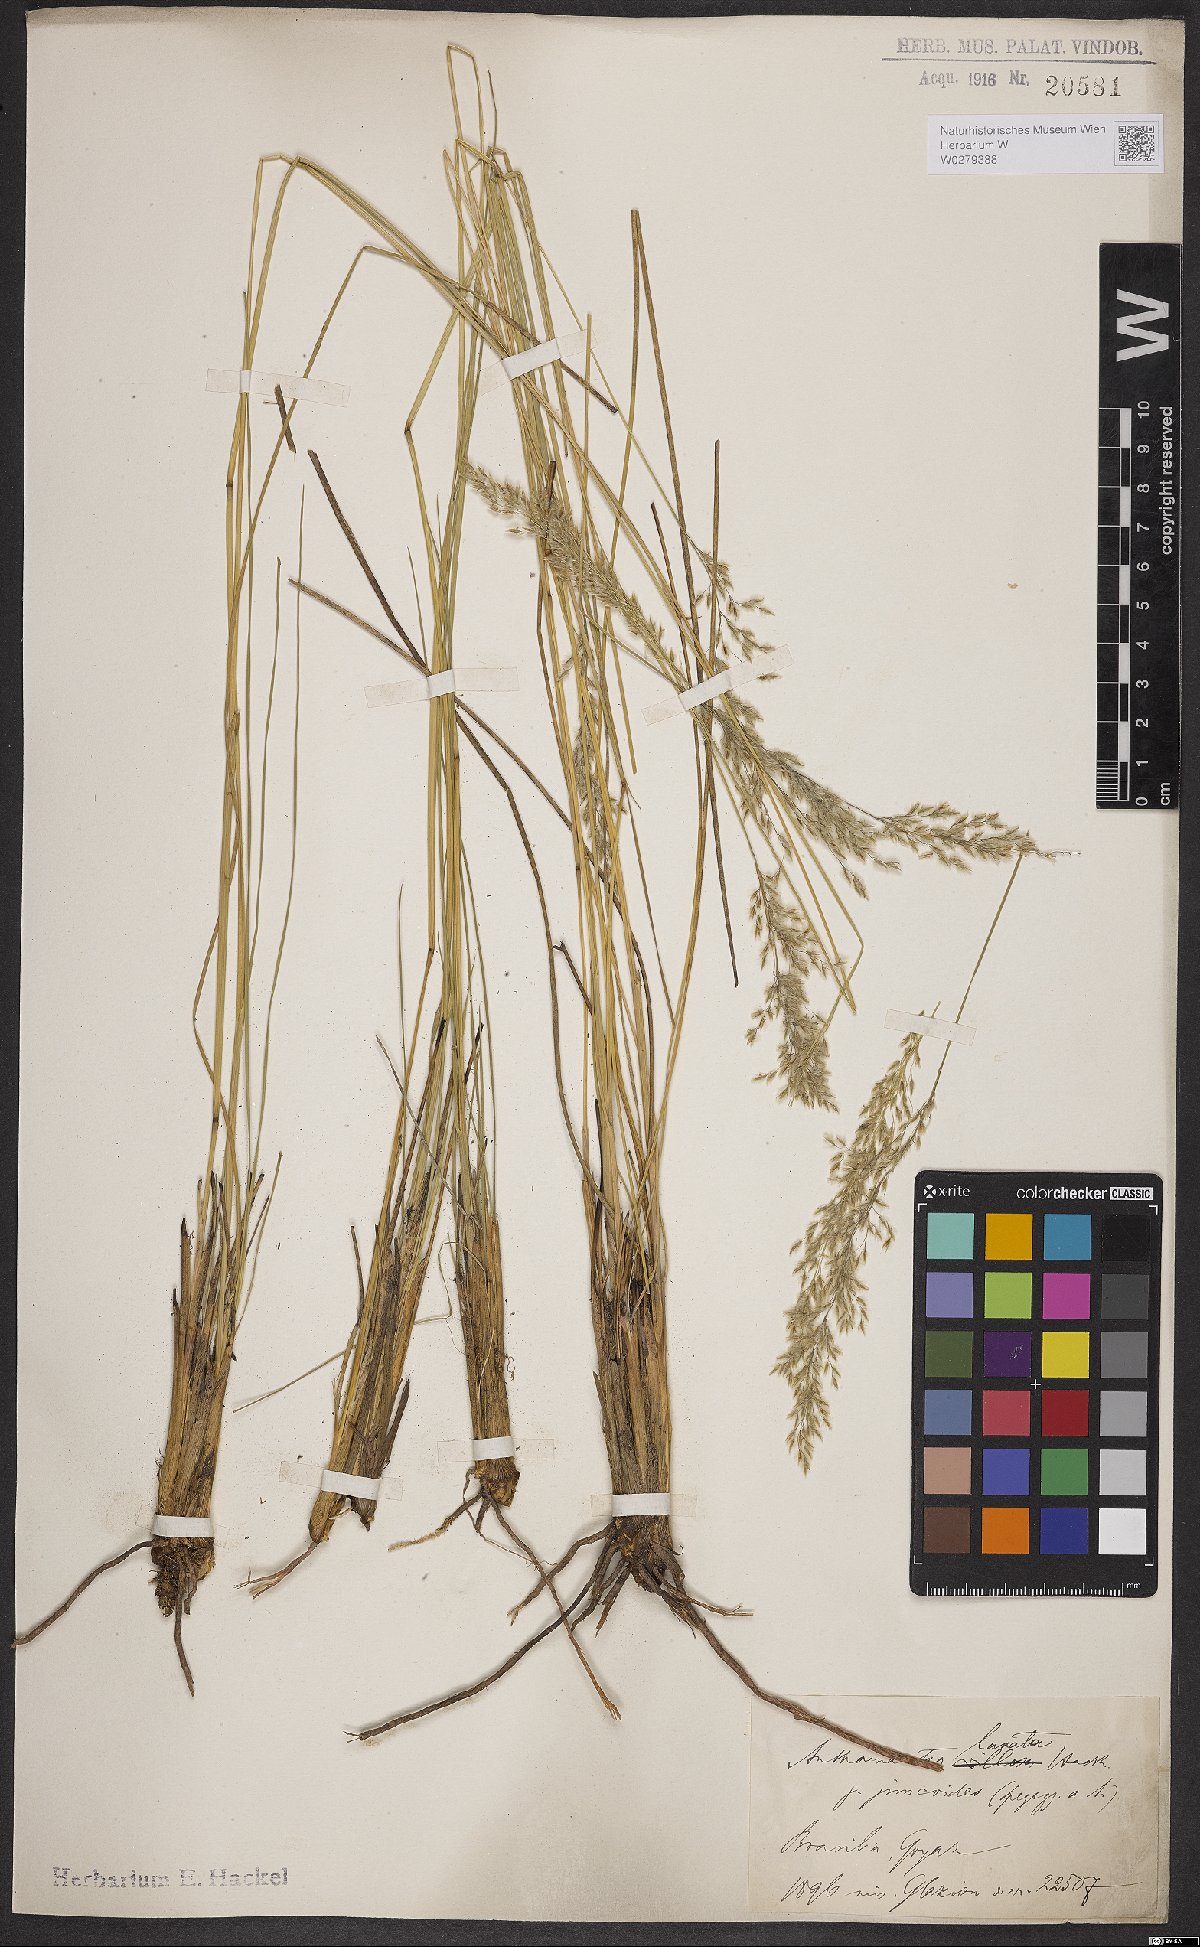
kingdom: Plantae
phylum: Tracheophyta
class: Liliopsida
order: Poales
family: Poaceae
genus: Anthaenantia
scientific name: Anthaenantia lanata
